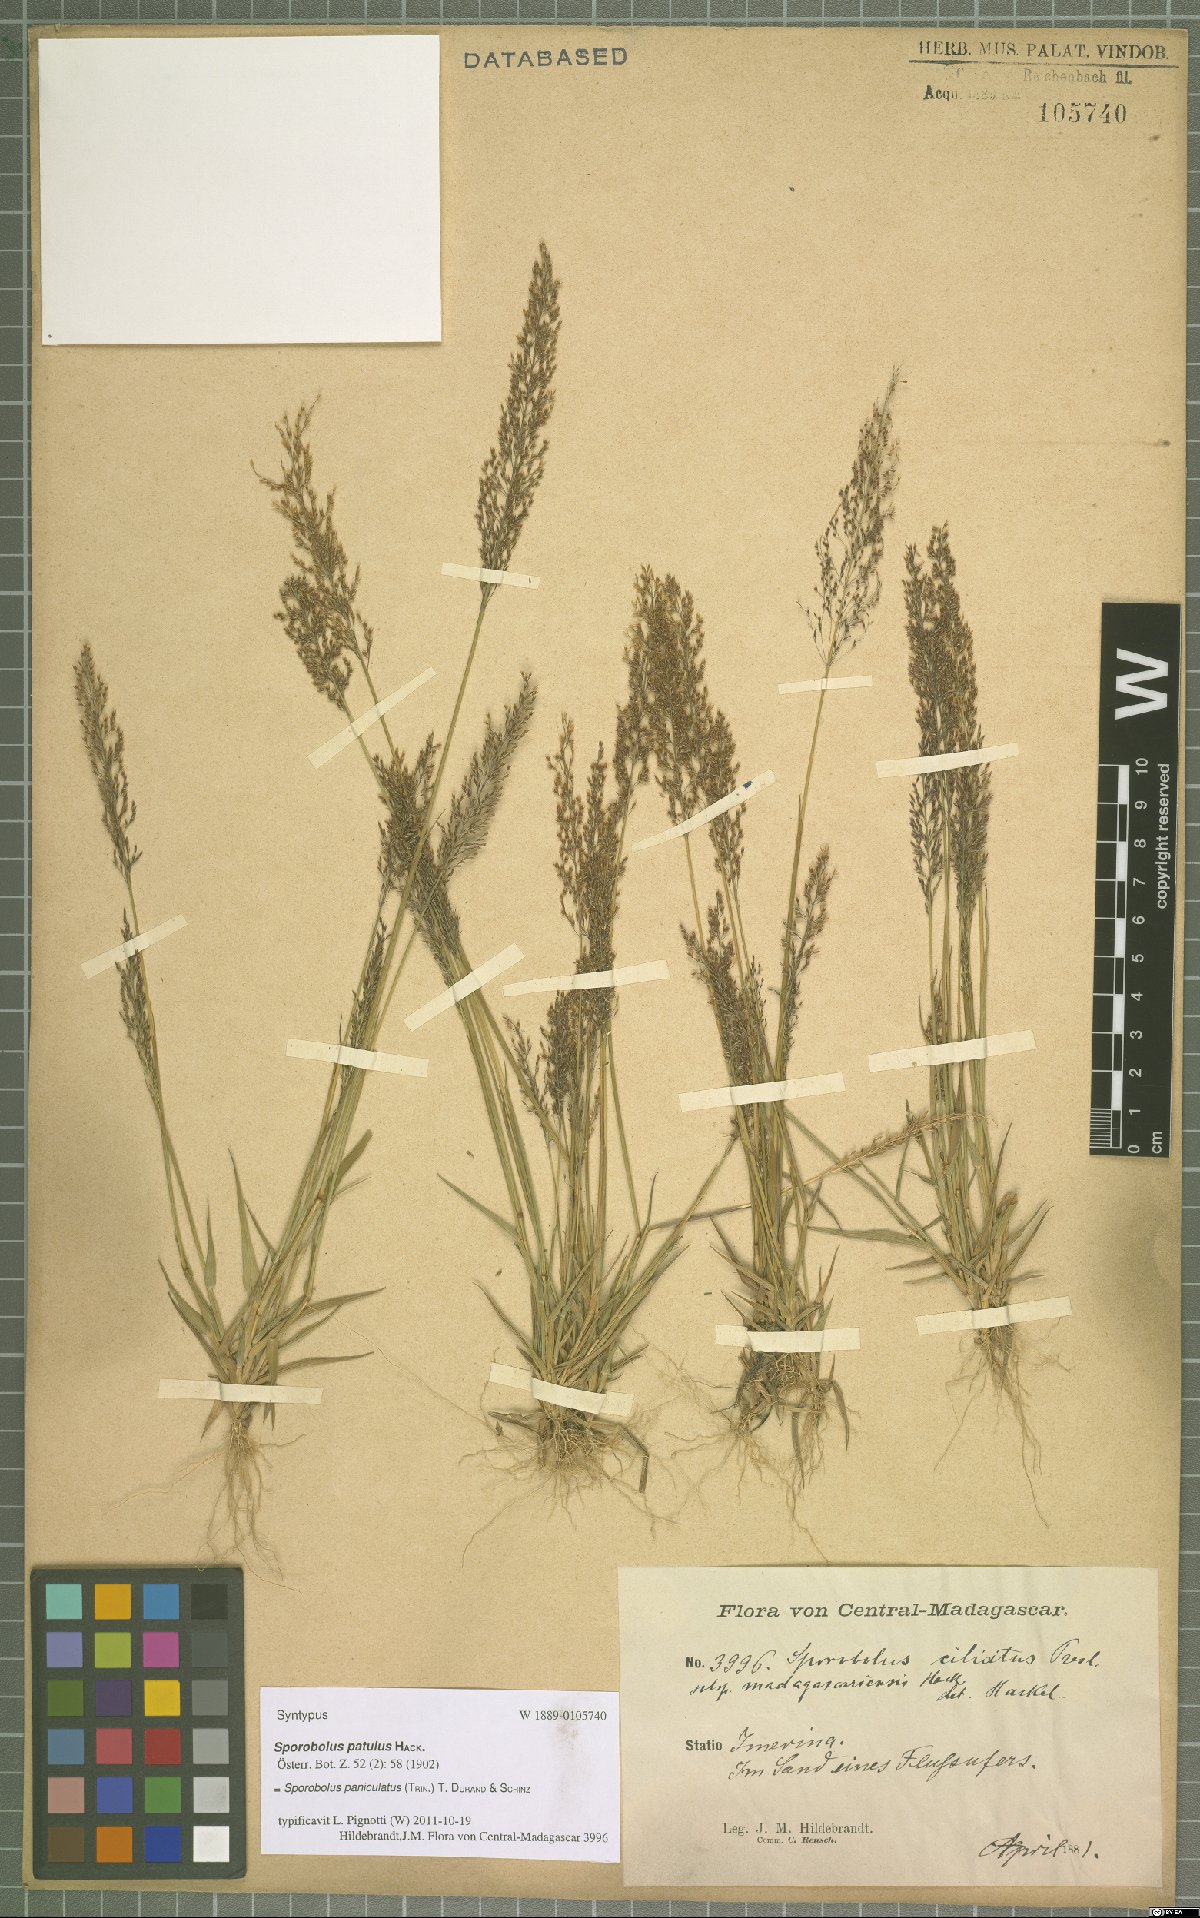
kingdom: Plantae
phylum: Tracheophyta
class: Liliopsida
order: Poales
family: Poaceae
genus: Sporobolus
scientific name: Sporobolus paniculatus
